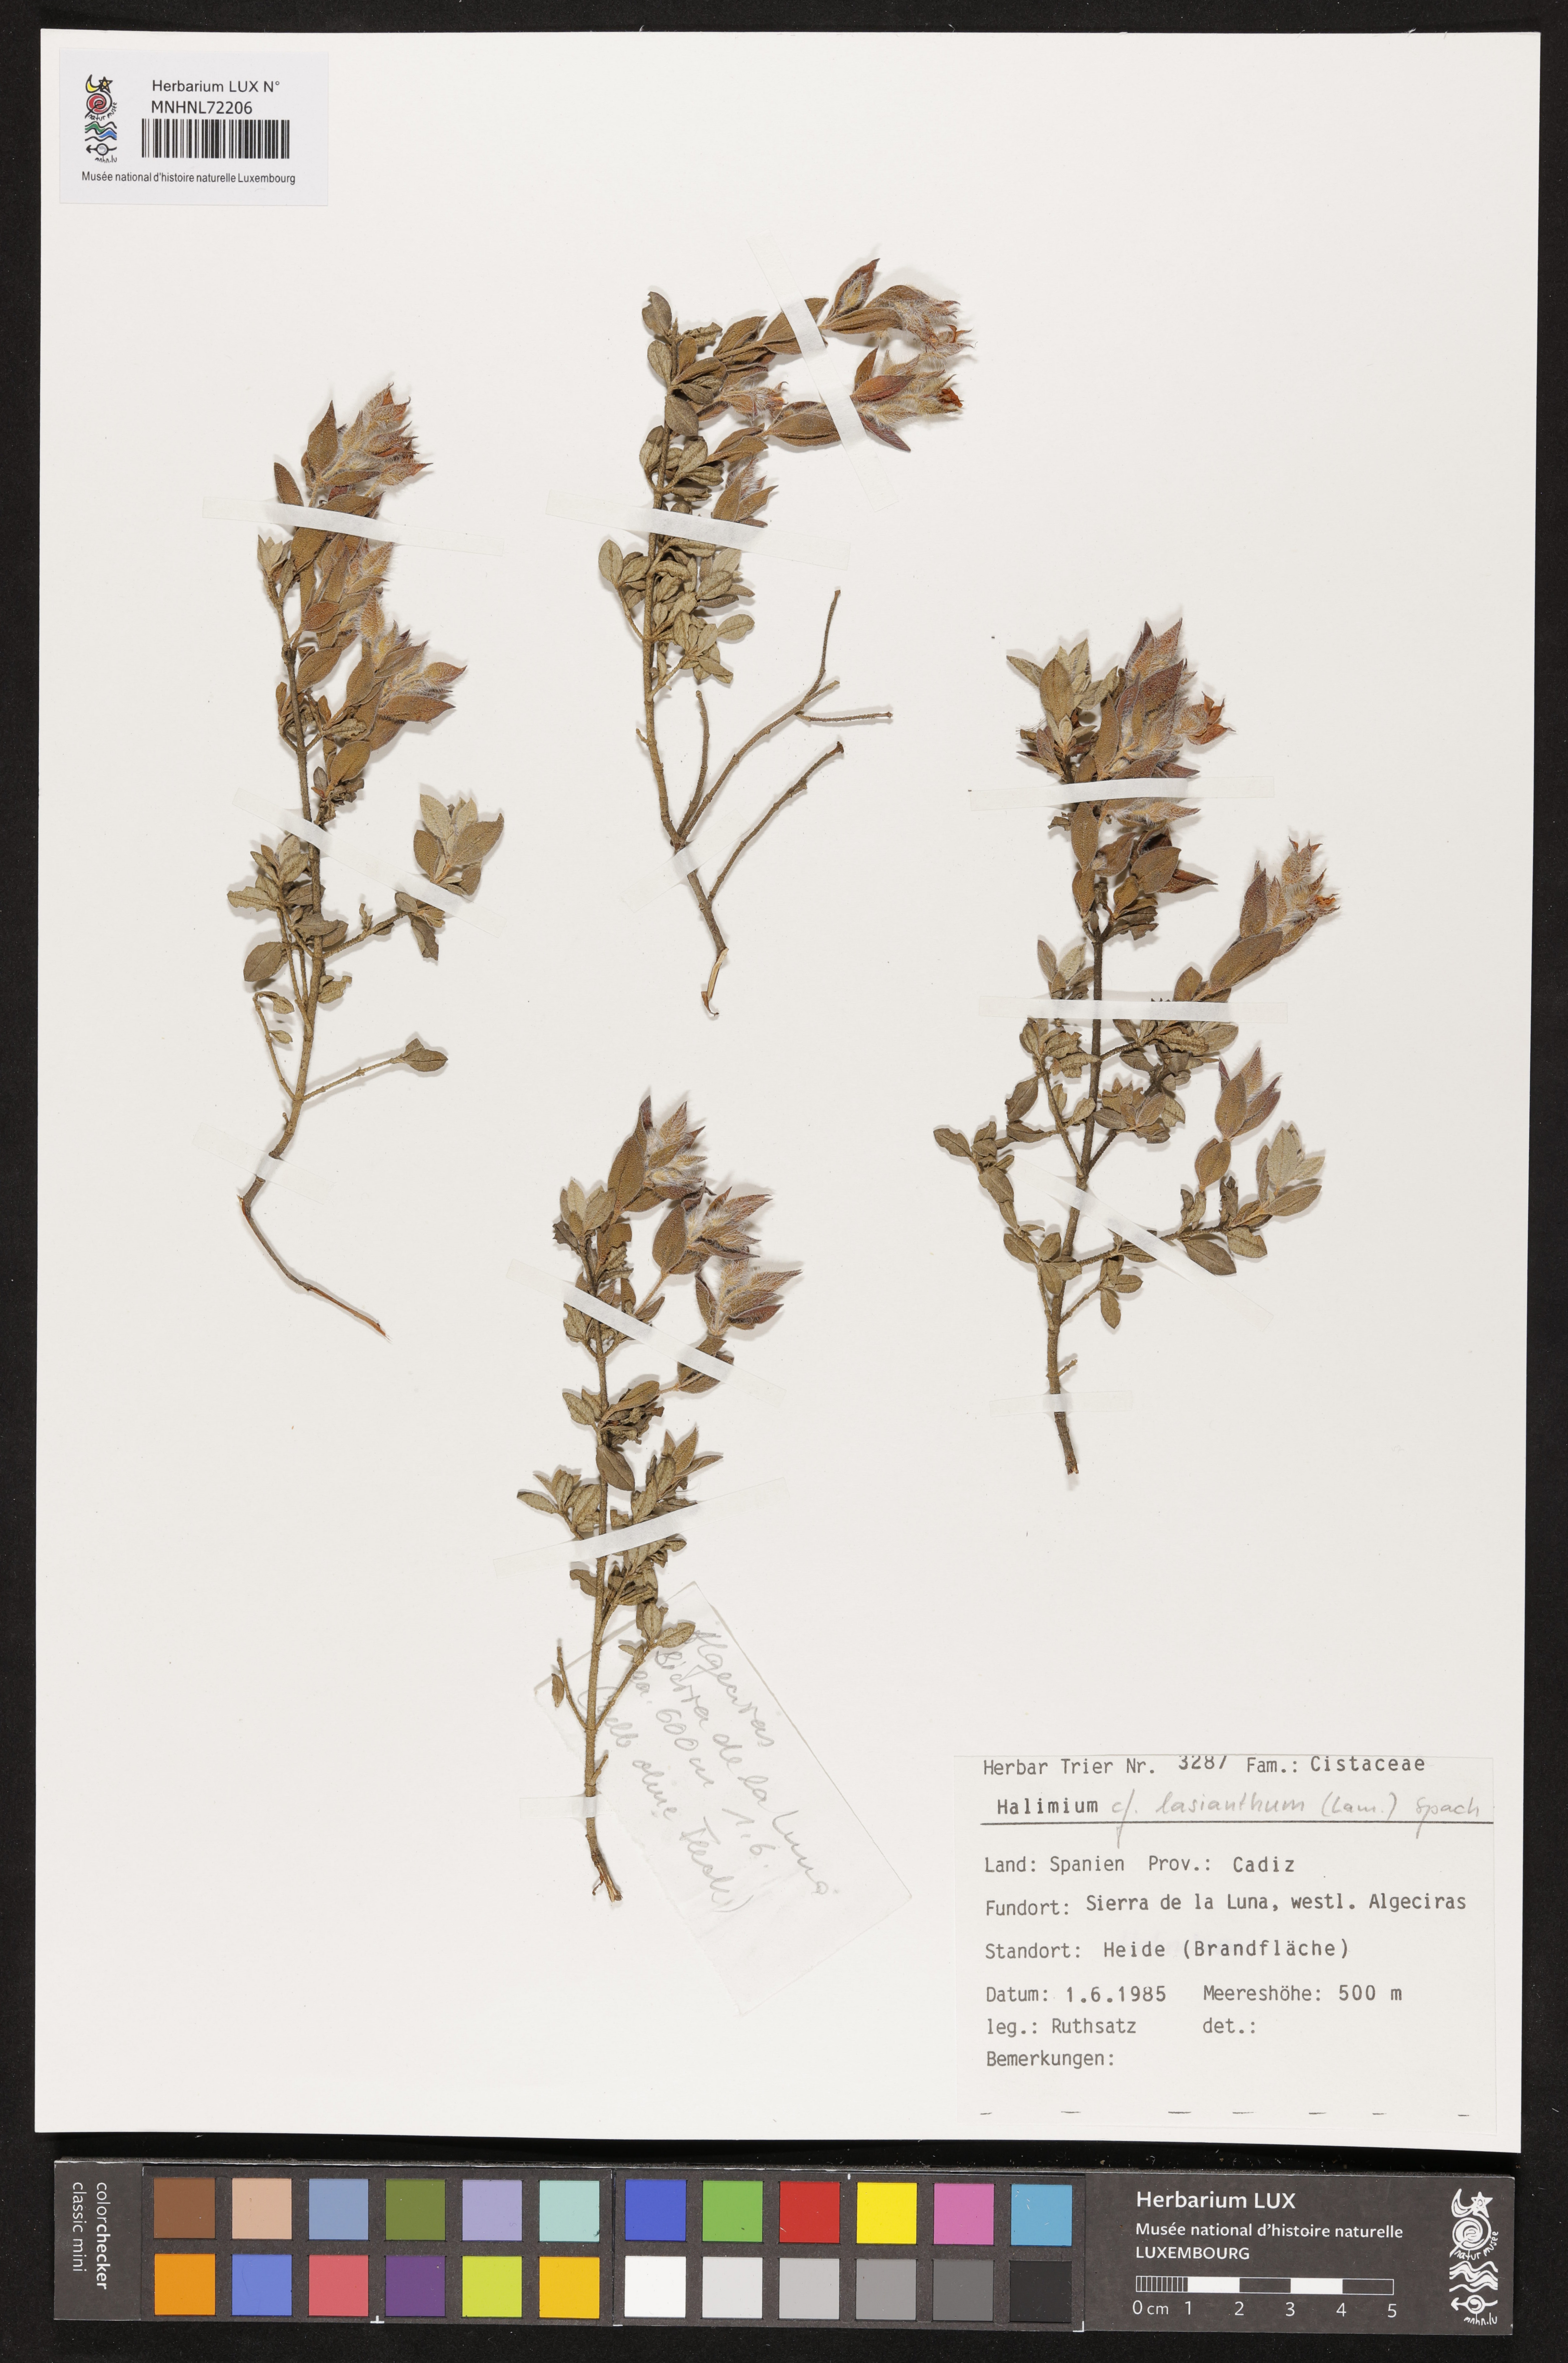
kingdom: Plantae
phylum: Tracheophyta
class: Magnoliopsida
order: Malvales
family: Cistaceae
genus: Halimium
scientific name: Halimium lasianthum
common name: Lisbon false sun-rose
